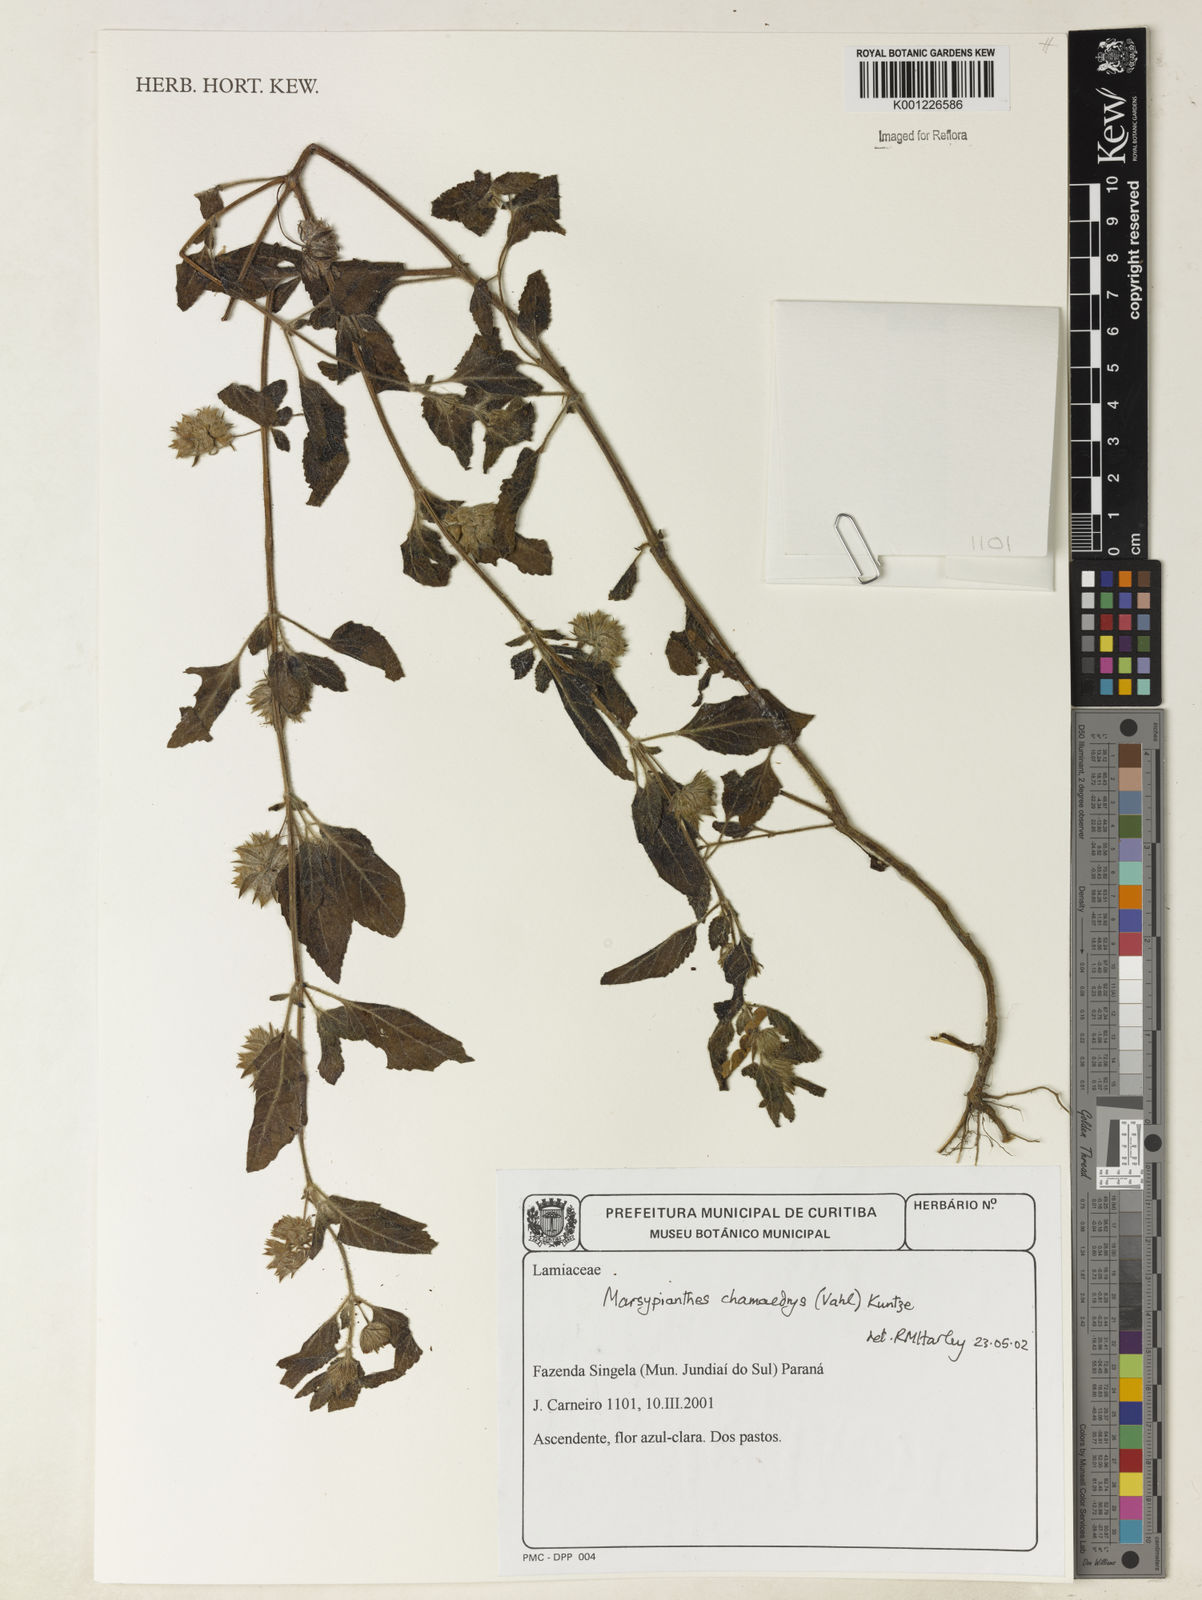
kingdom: Plantae
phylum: Tracheophyta
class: Magnoliopsida
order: Lamiales
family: Lamiaceae
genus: Marsypianthes
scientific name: Marsypianthes chamaedrys
